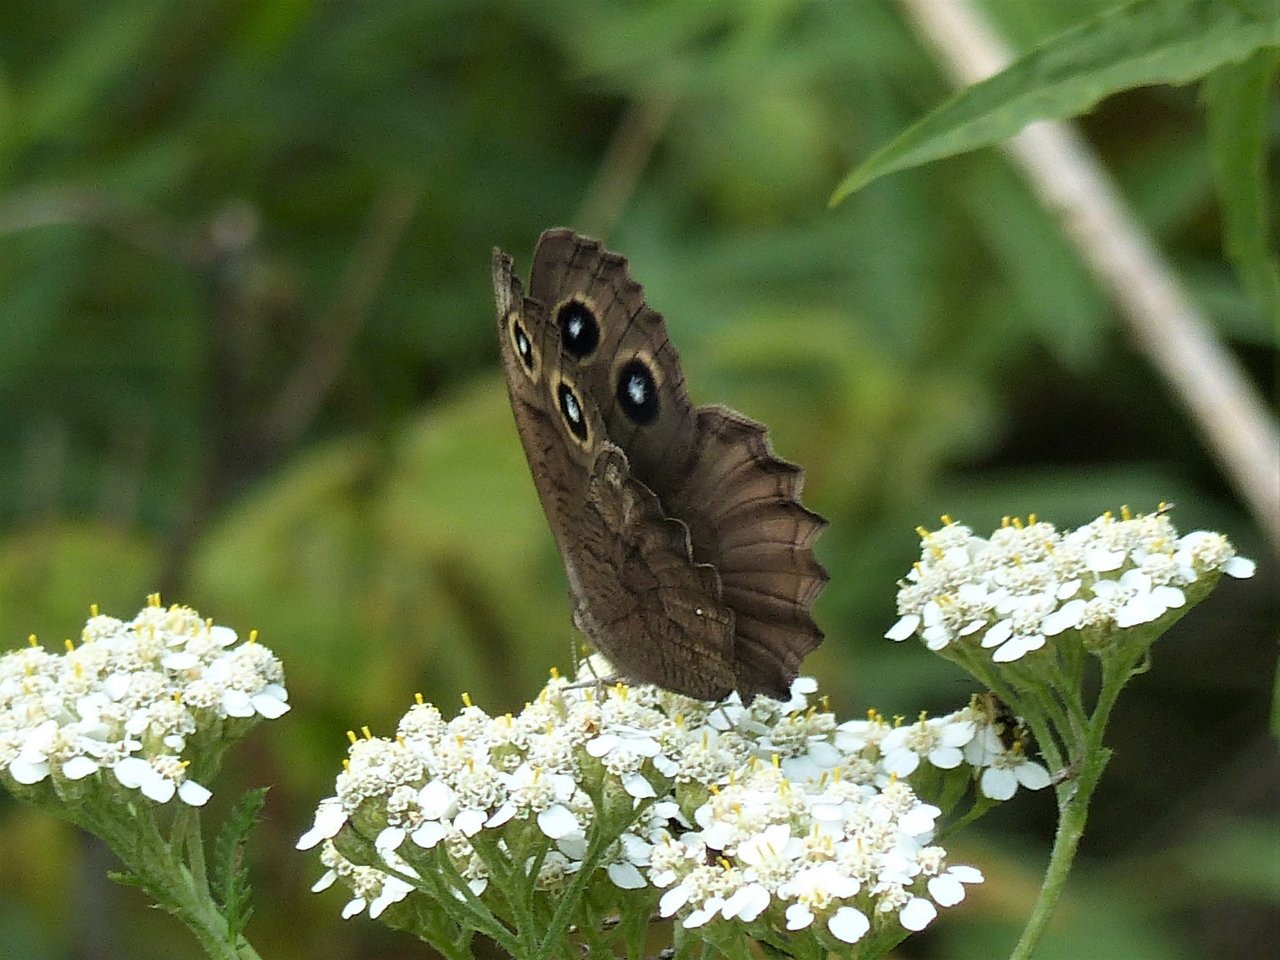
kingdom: Animalia
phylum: Arthropoda
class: Insecta
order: Lepidoptera
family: Nymphalidae
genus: Cercyonis
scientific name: Cercyonis pegala
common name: Common Wood-Nymph
